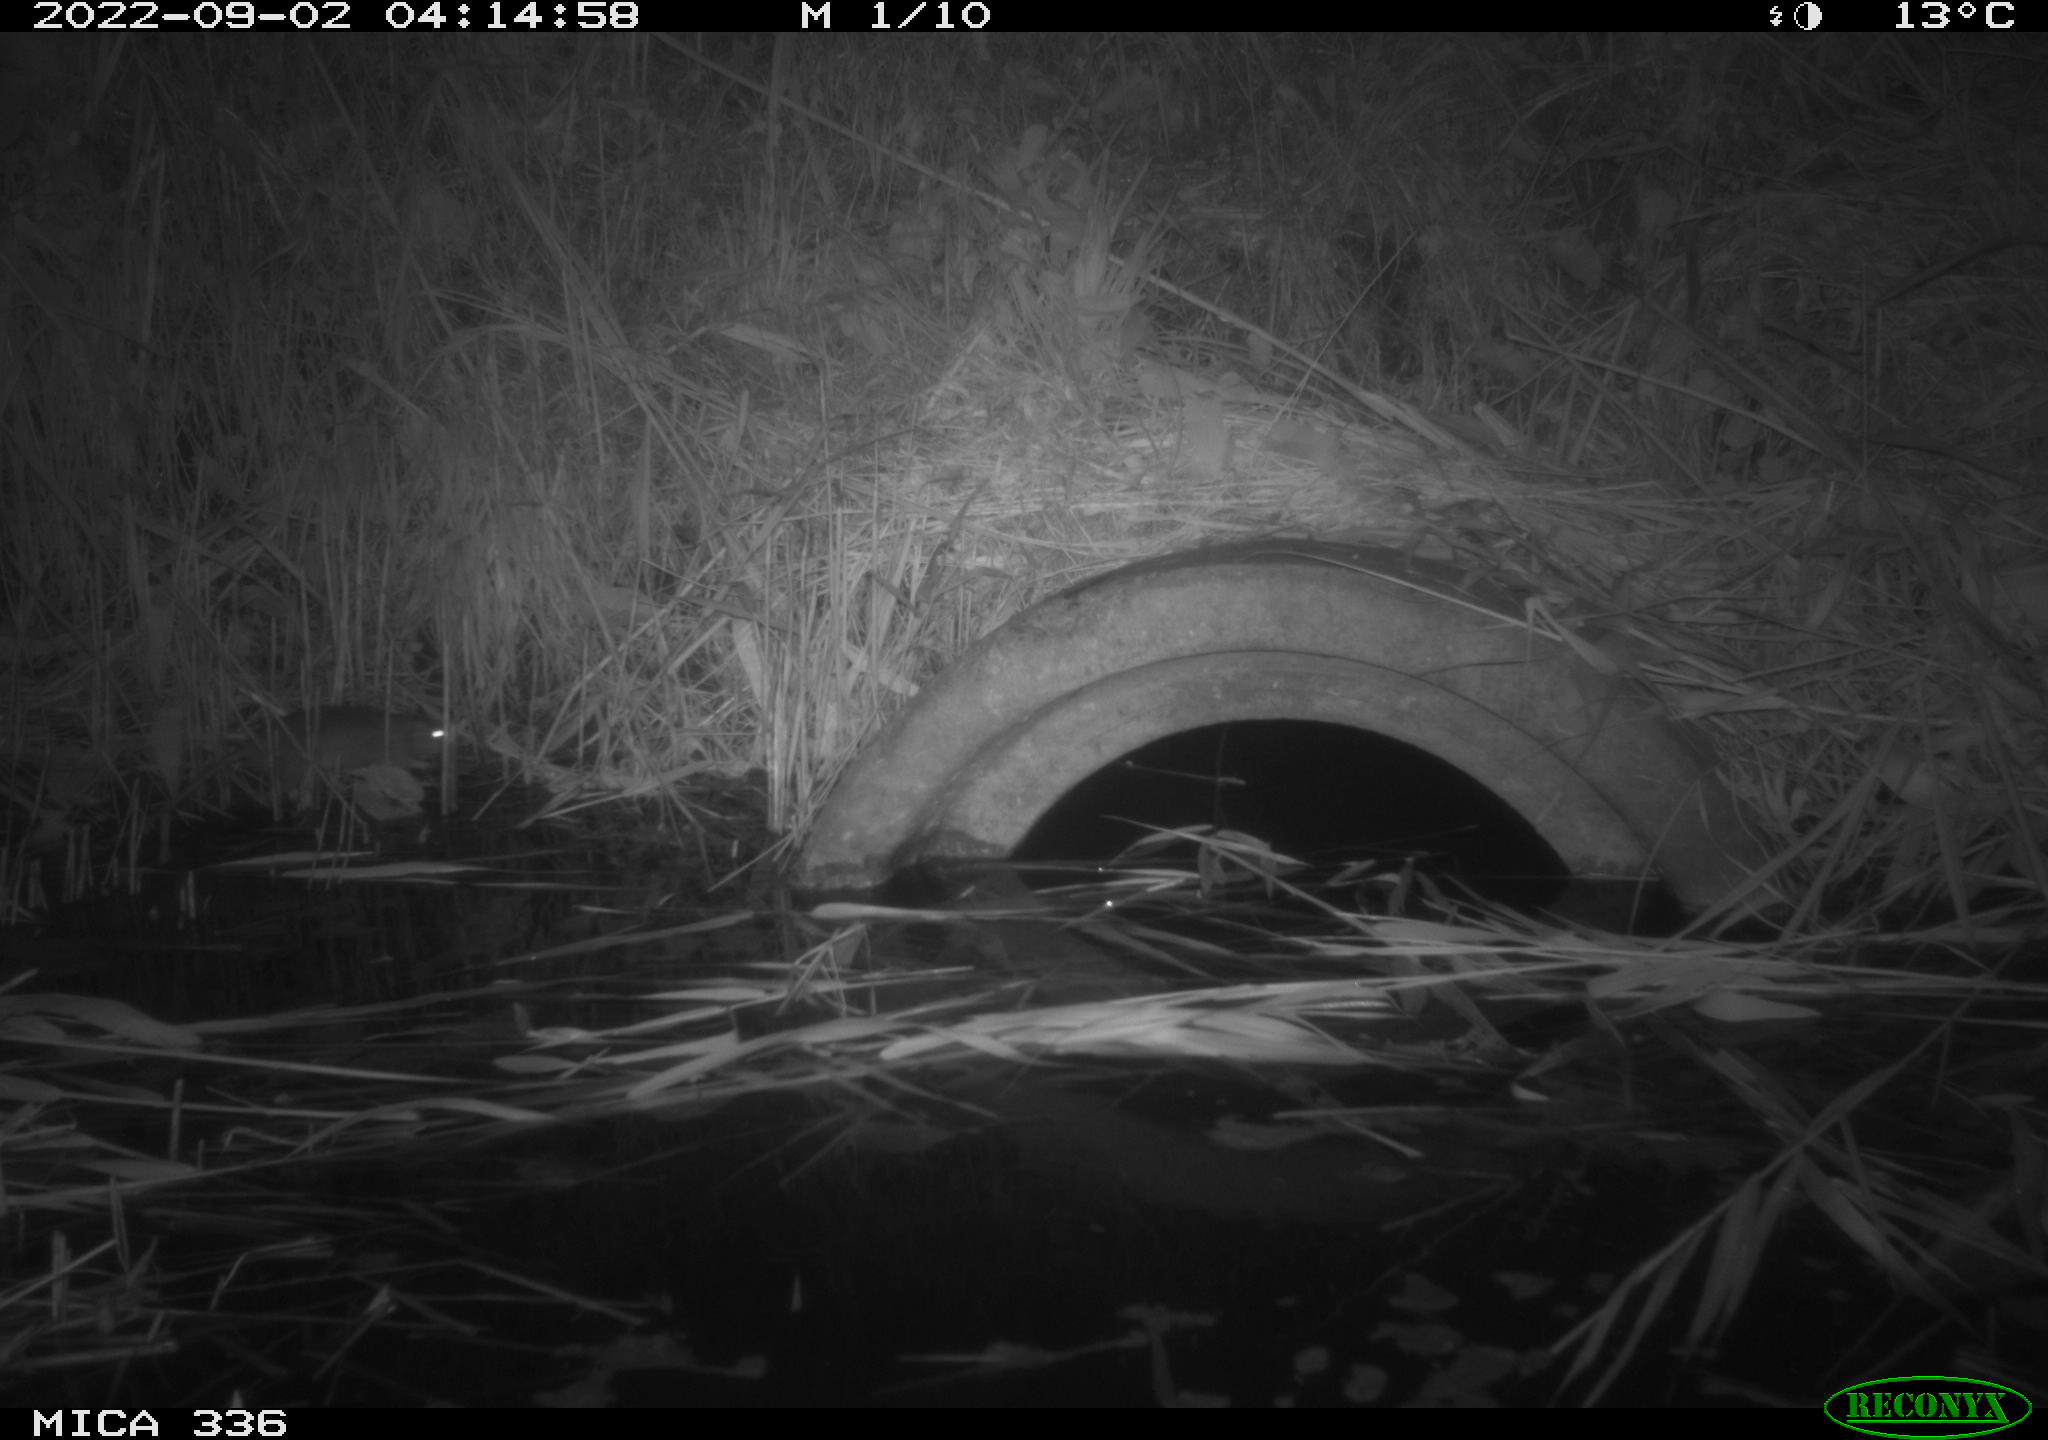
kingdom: Animalia
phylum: Chordata
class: Mammalia
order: Rodentia
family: Muridae
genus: Rattus
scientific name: Rattus norvegicus
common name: Brown rat
